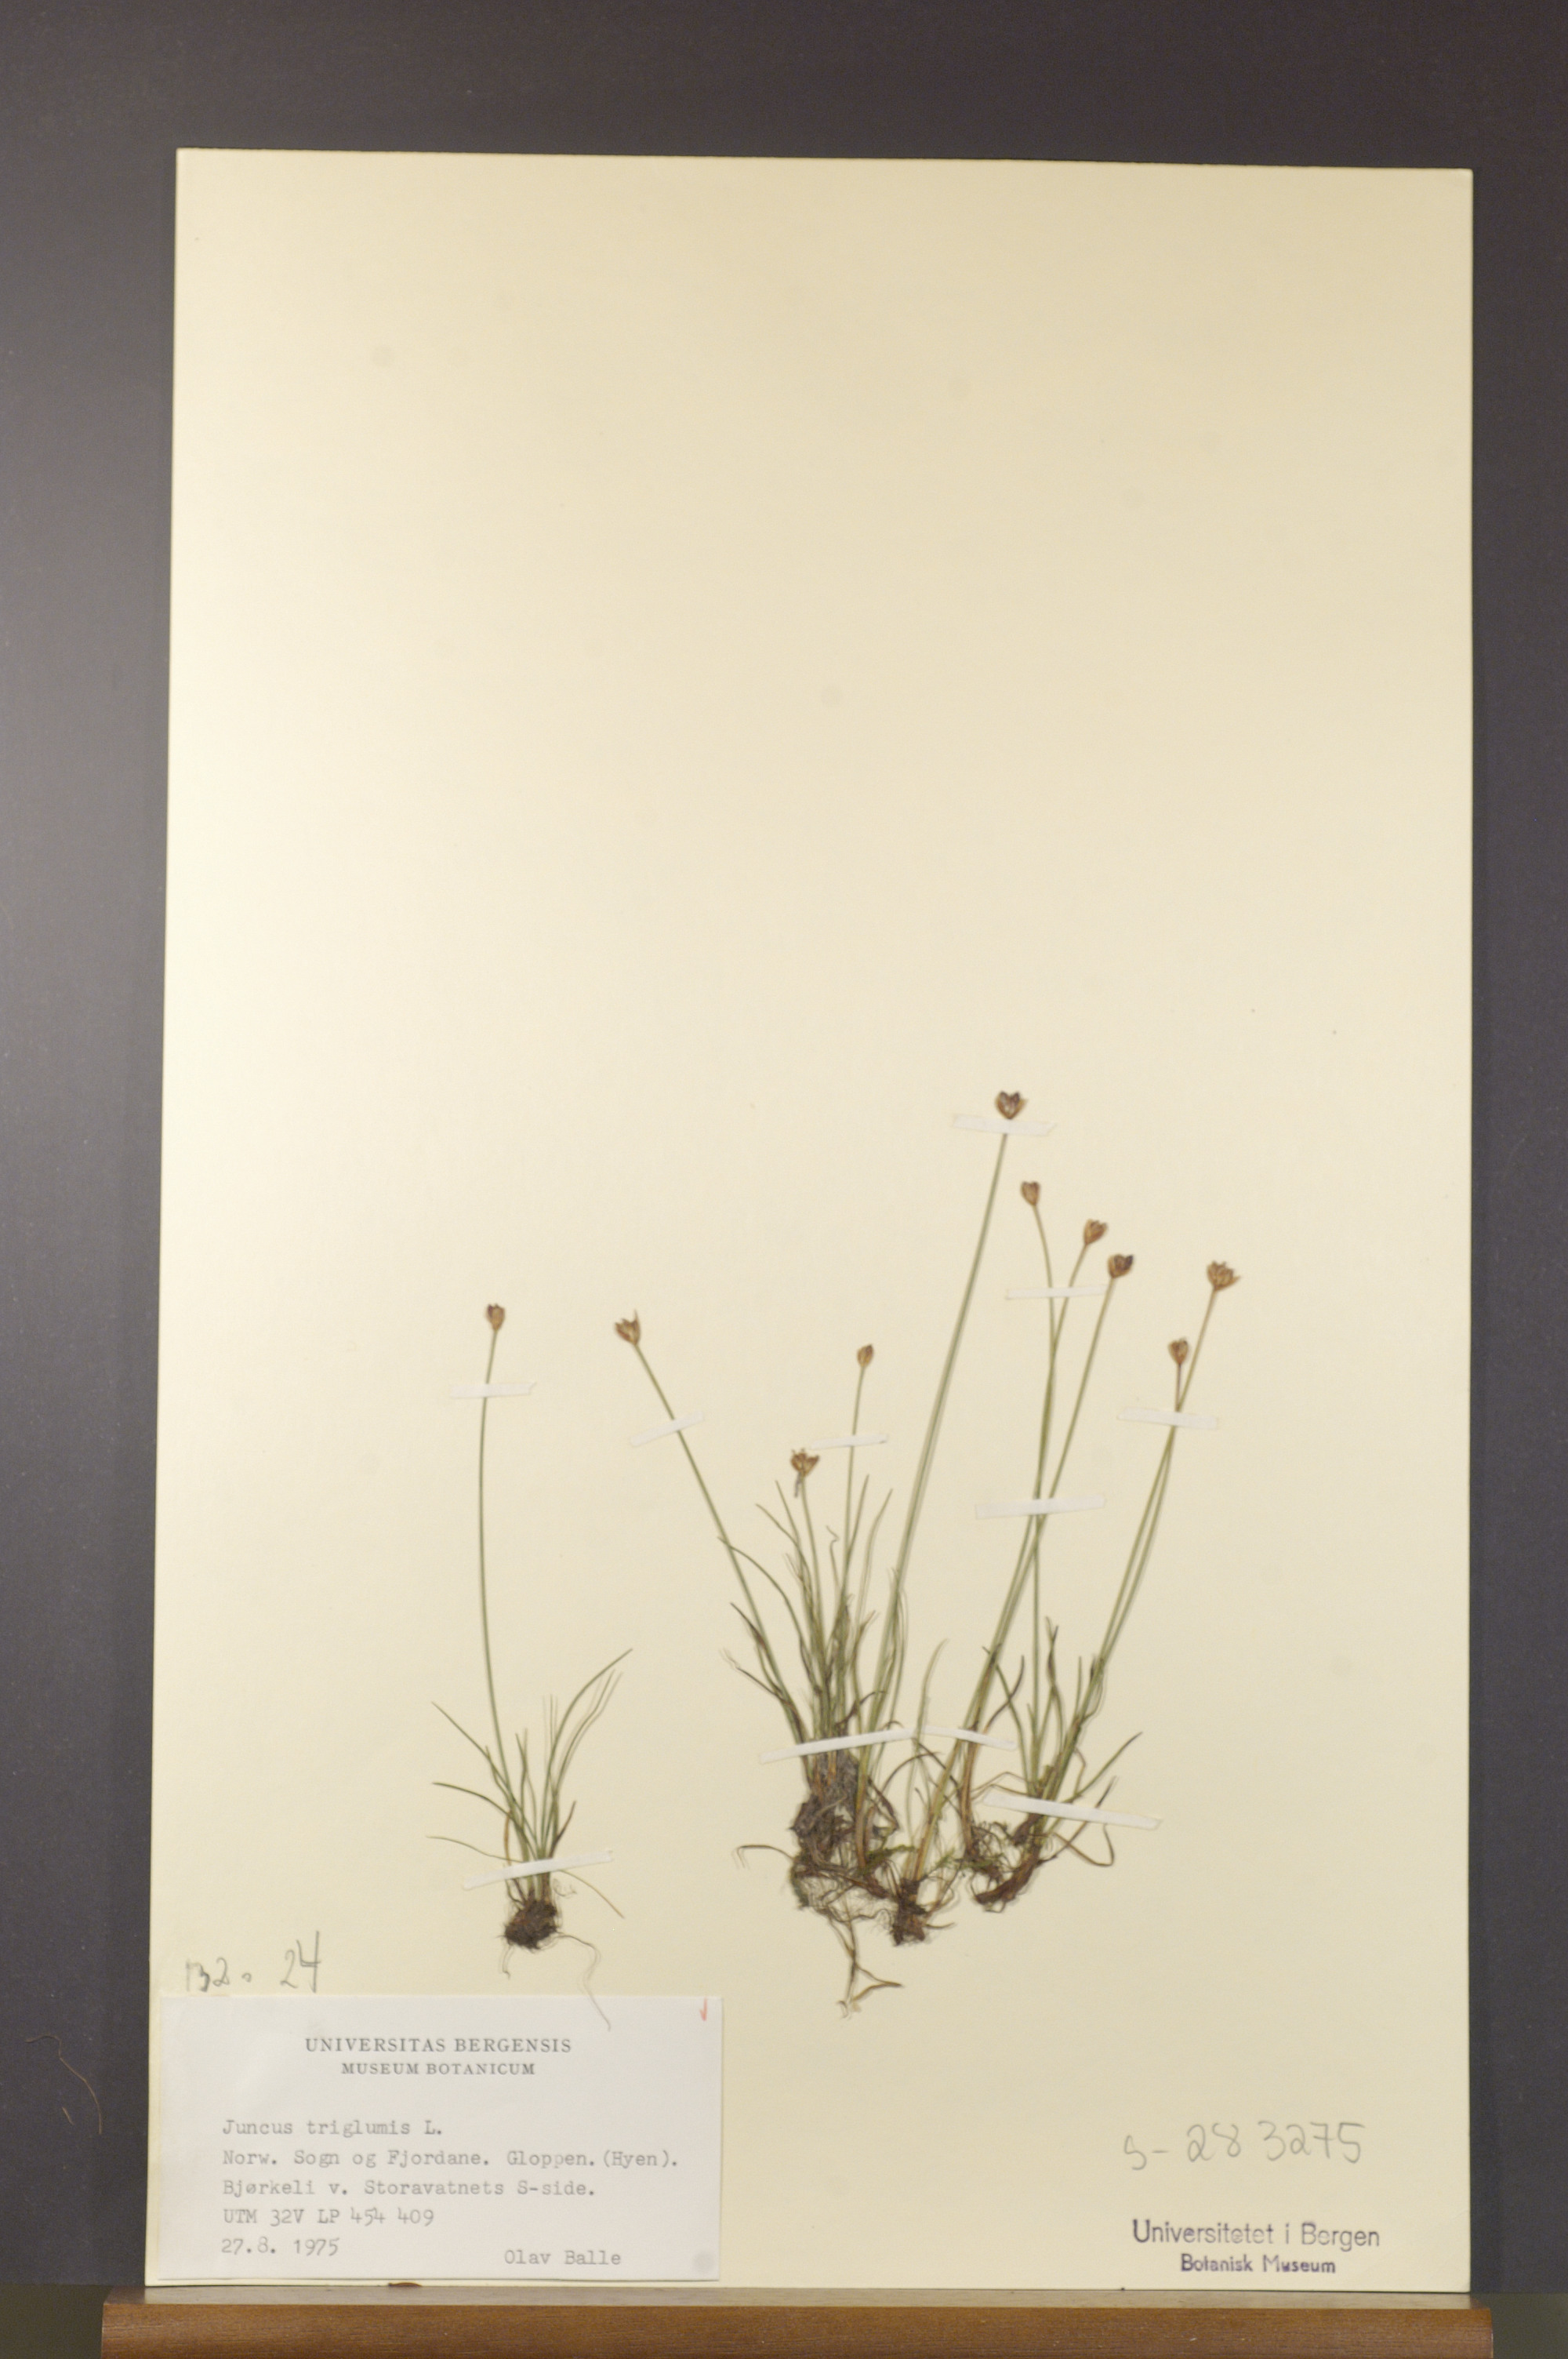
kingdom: Plantae
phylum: Tracheophyta
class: Liliopsida
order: Poales
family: Juncaceae
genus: Juncus
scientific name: Juncus triglumis
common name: Three-flowered rush
